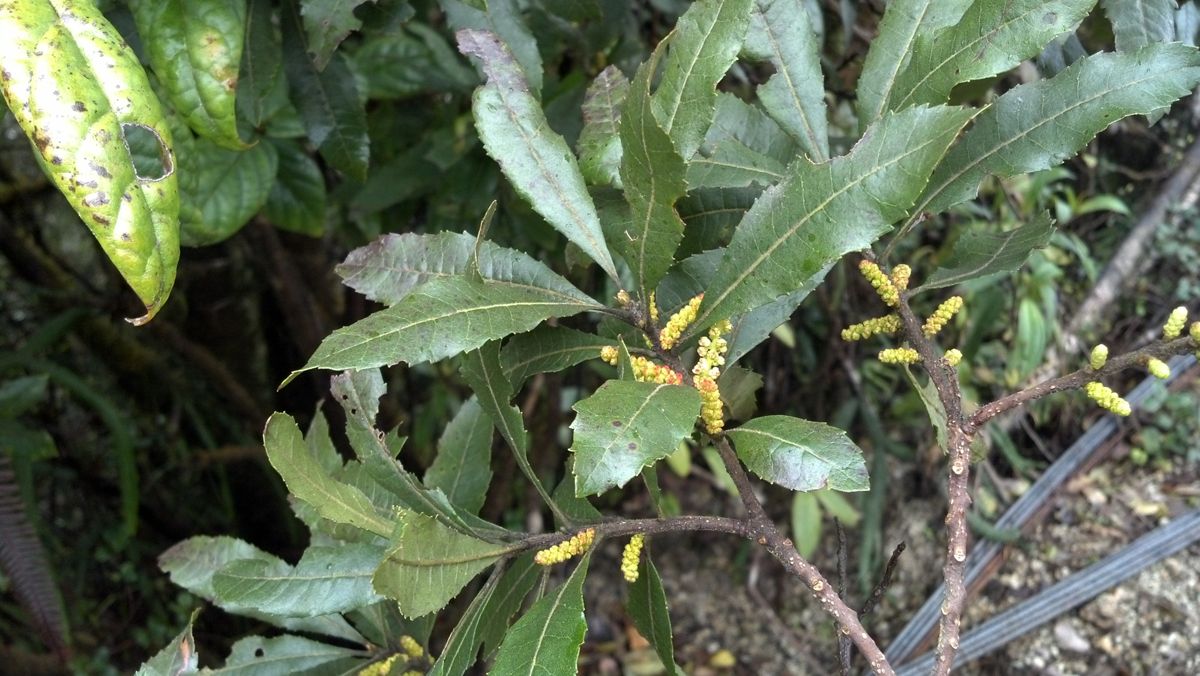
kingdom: Plantae
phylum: Tracheophyta
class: Magnoliopsida
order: Fagales
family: Myricaceae
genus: Morella
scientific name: Morella lindeniana
